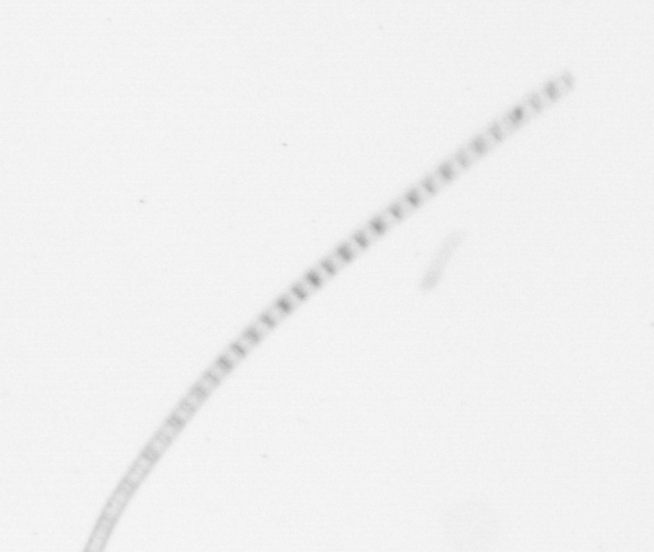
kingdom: Chromista
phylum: Ochrophyta
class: Bacillariophyceae
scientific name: Bacillariophyceae
